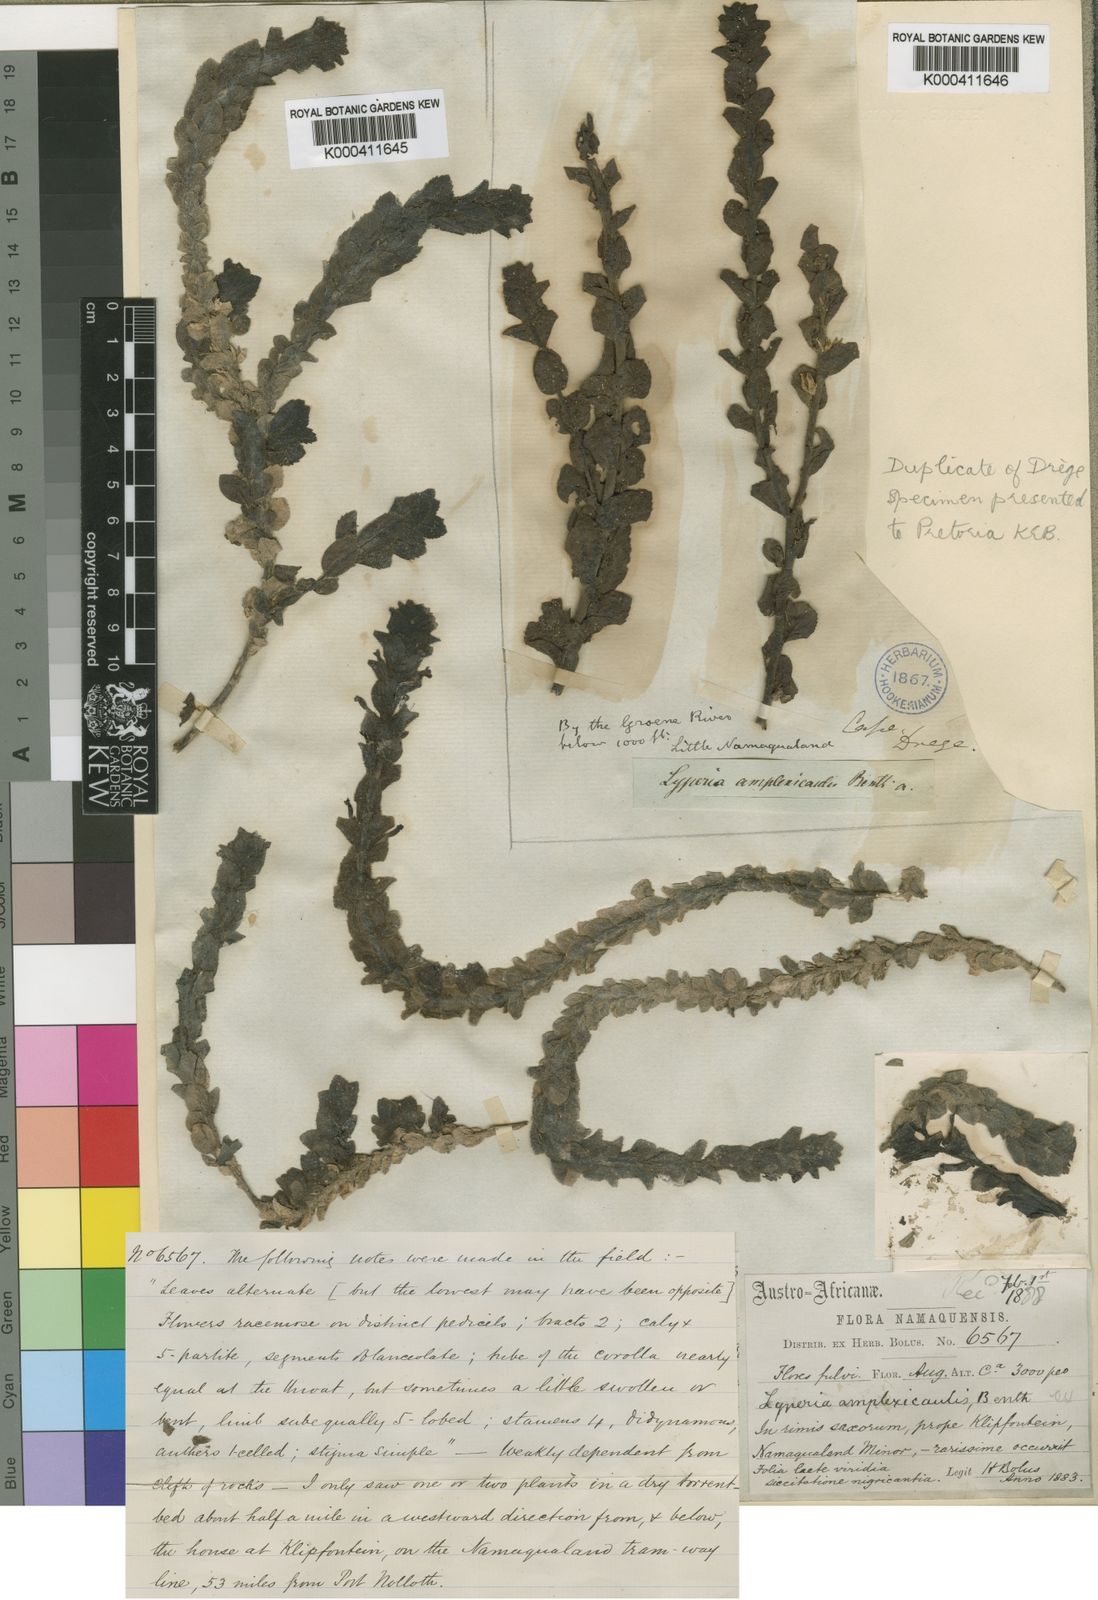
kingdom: Plantae
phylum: Tracheophyta
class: Magnoliopsida
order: Lamiales
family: Scrophulariaceae
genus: Jamesbrittenia
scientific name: Jamesbrittenia amplexicaulis
